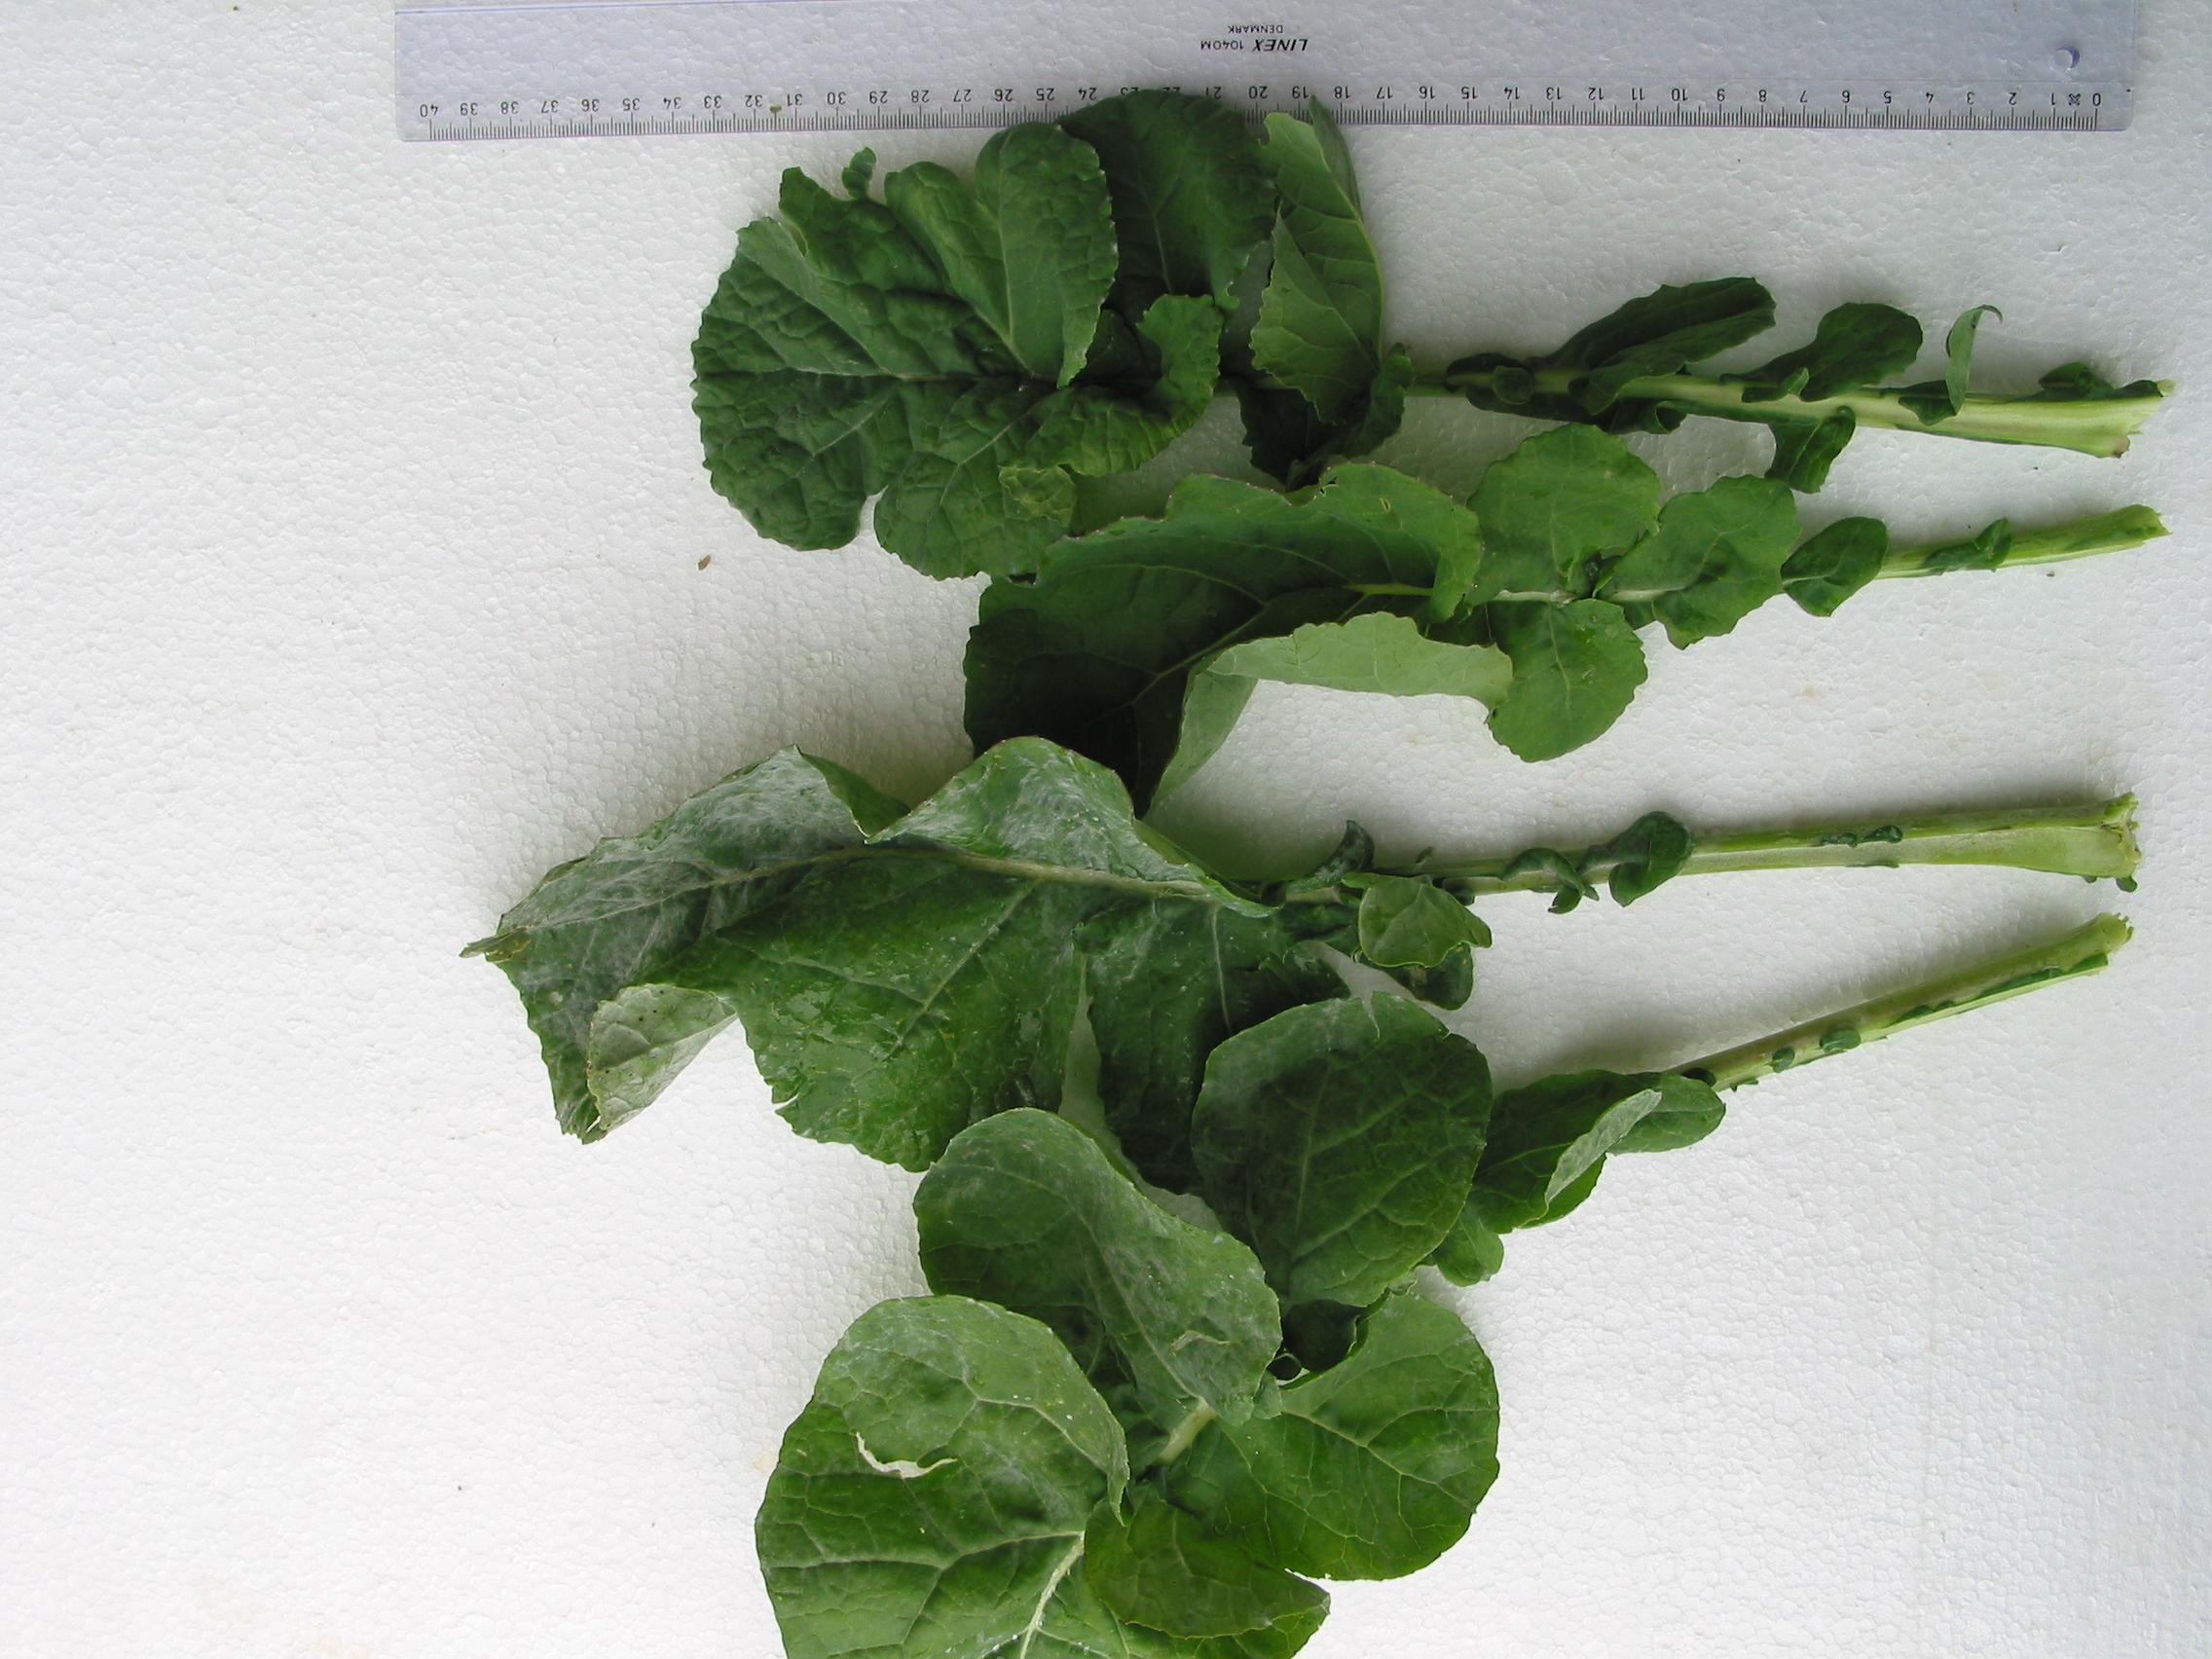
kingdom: Plantae
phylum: Tracheophyta
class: Magnoliopsida
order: Brassicales
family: Brassicaceae
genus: Brassica
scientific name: Brassica napus
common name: Rape
